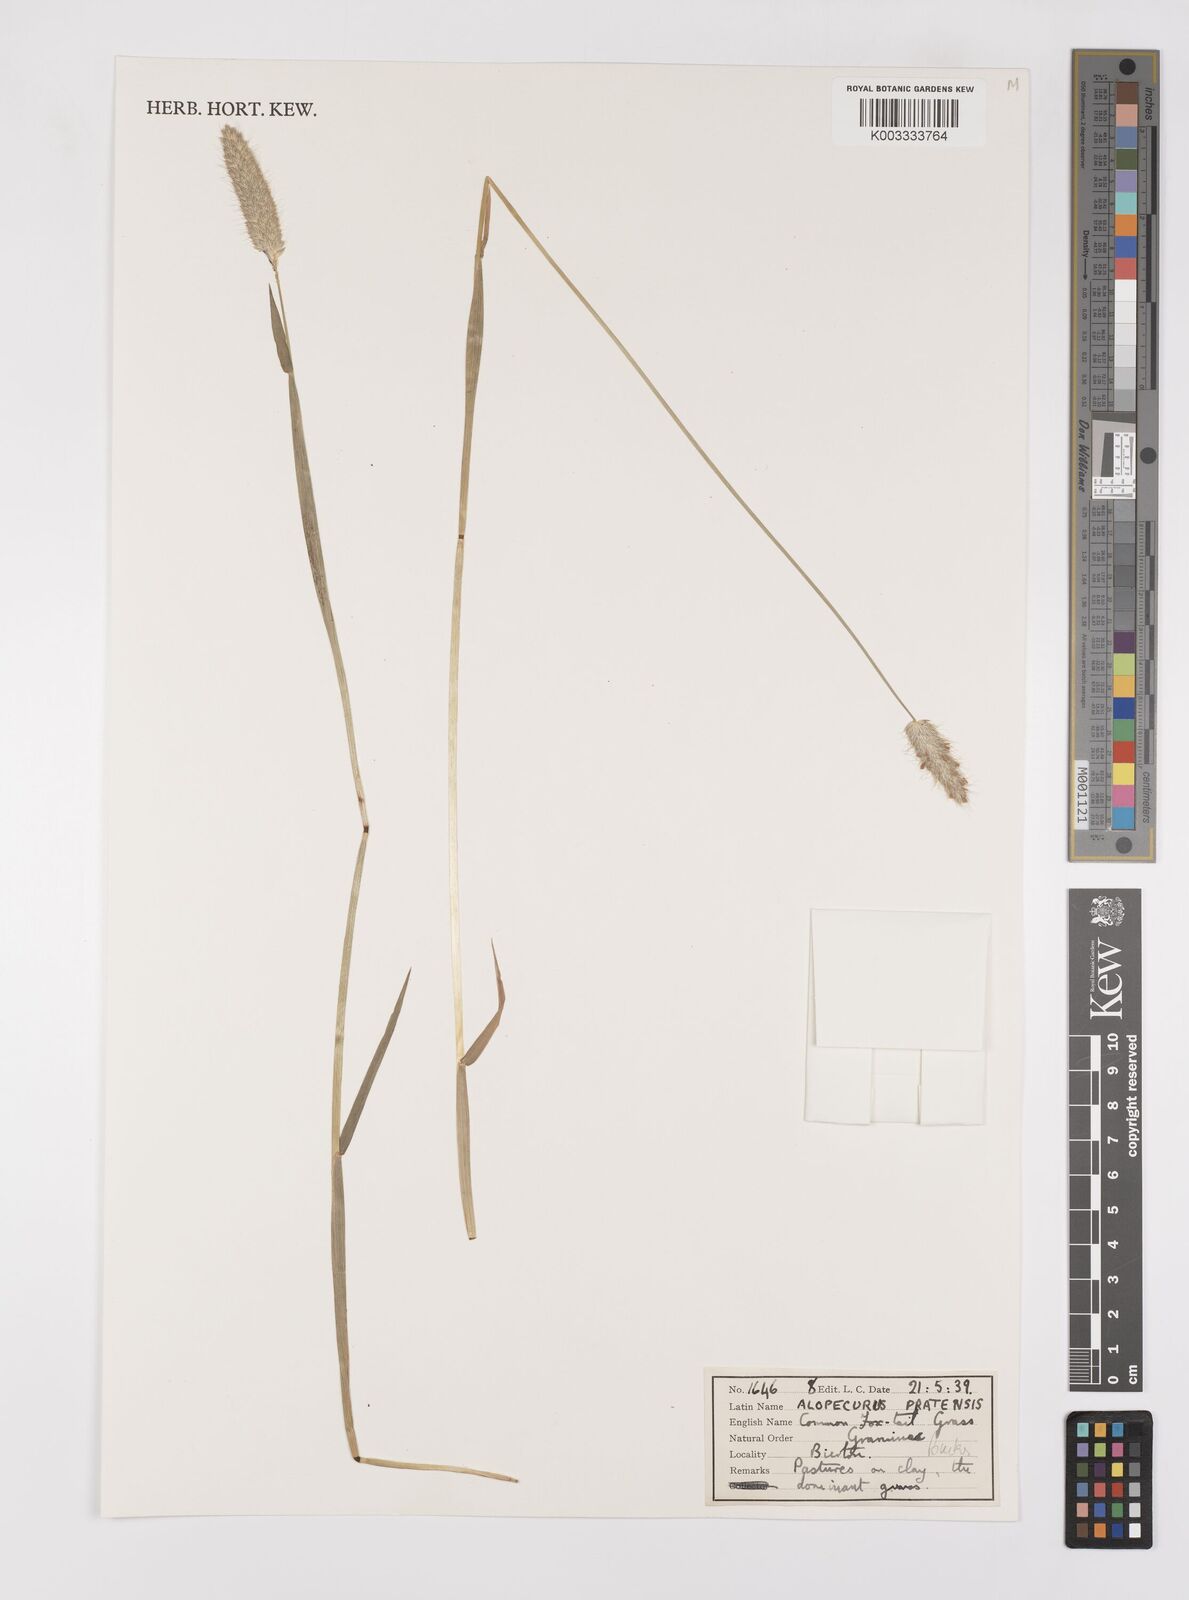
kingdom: Plantae
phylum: Tracheophyta
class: Liliopsida
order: Poales
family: Poaceae
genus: Alopecurus
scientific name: Alopecurus pratensis
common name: Meadow foxtail
